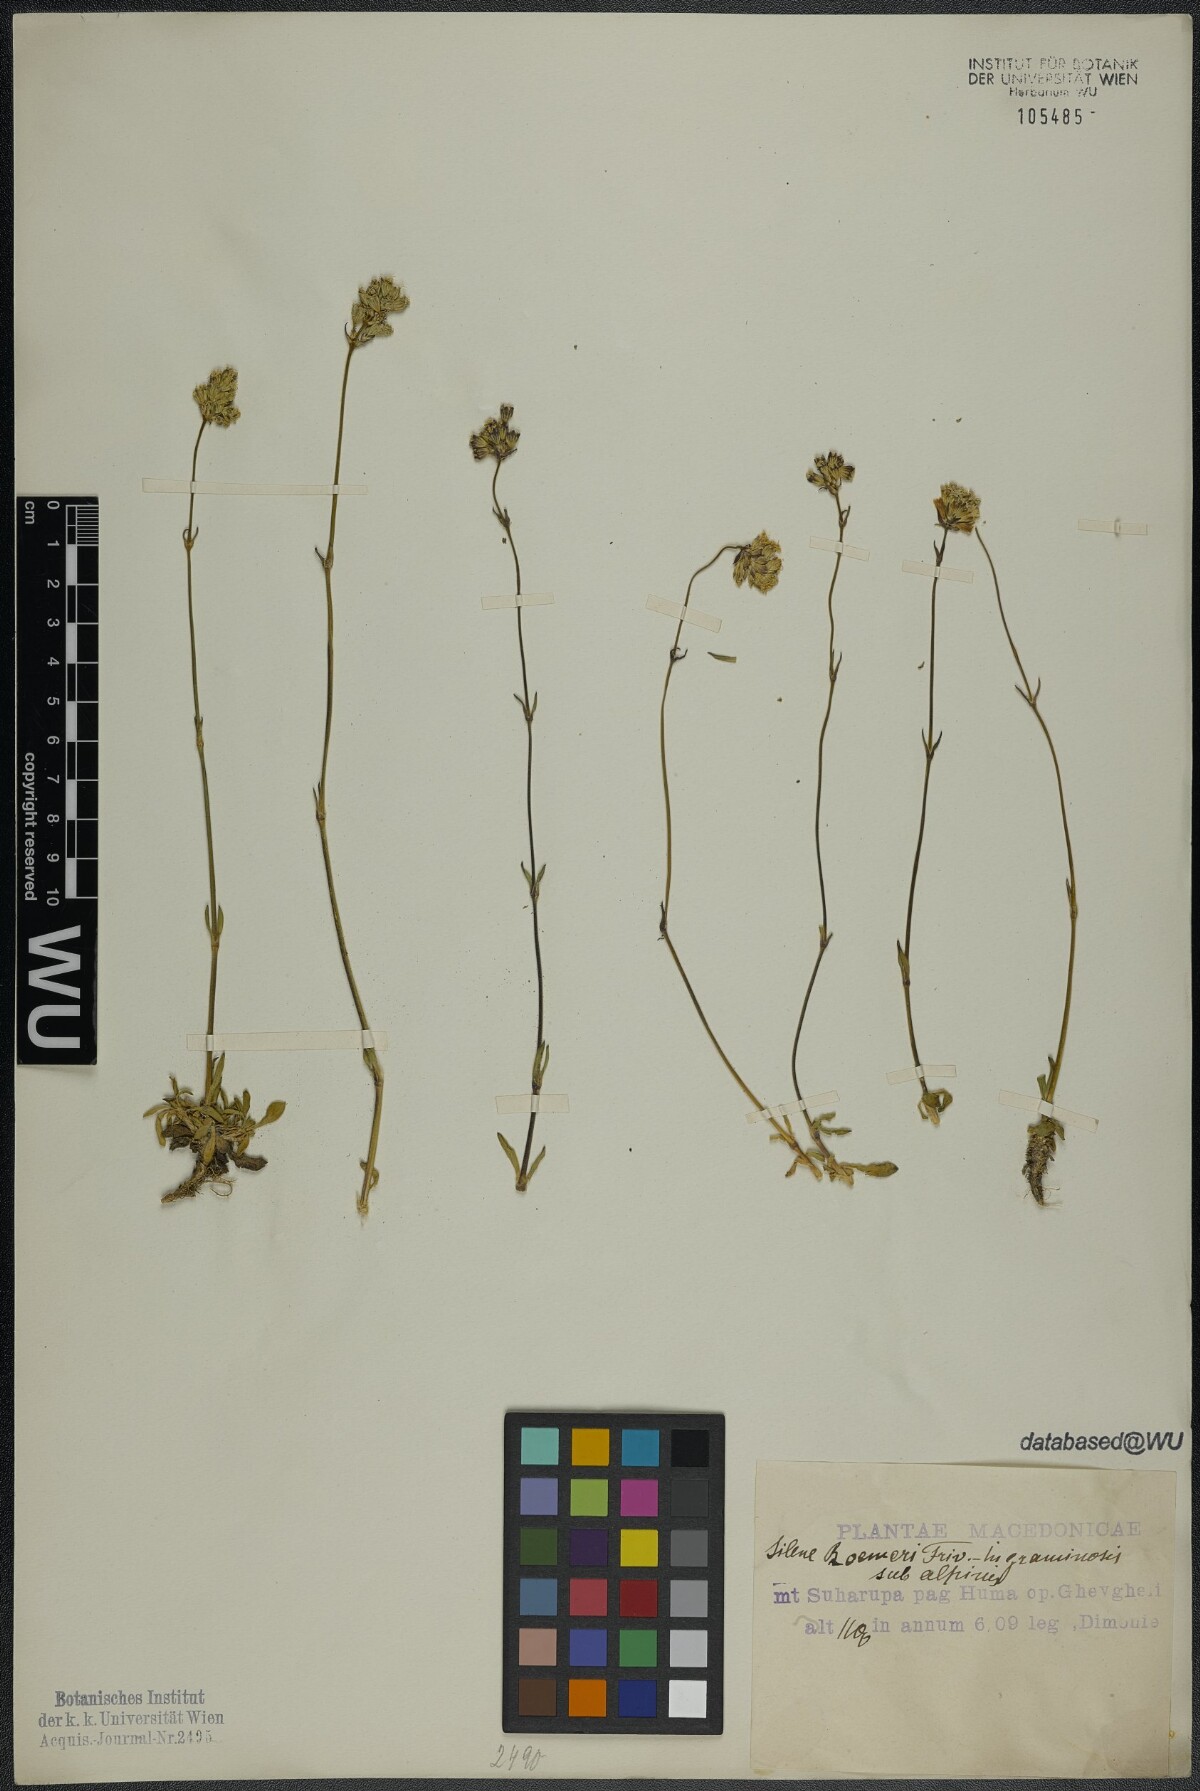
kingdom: Plantae
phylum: Tracheophyta
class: Magnoliopsida
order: Caryophyllales
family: Caryophyllaceae
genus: Silene
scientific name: Silene roemeri
